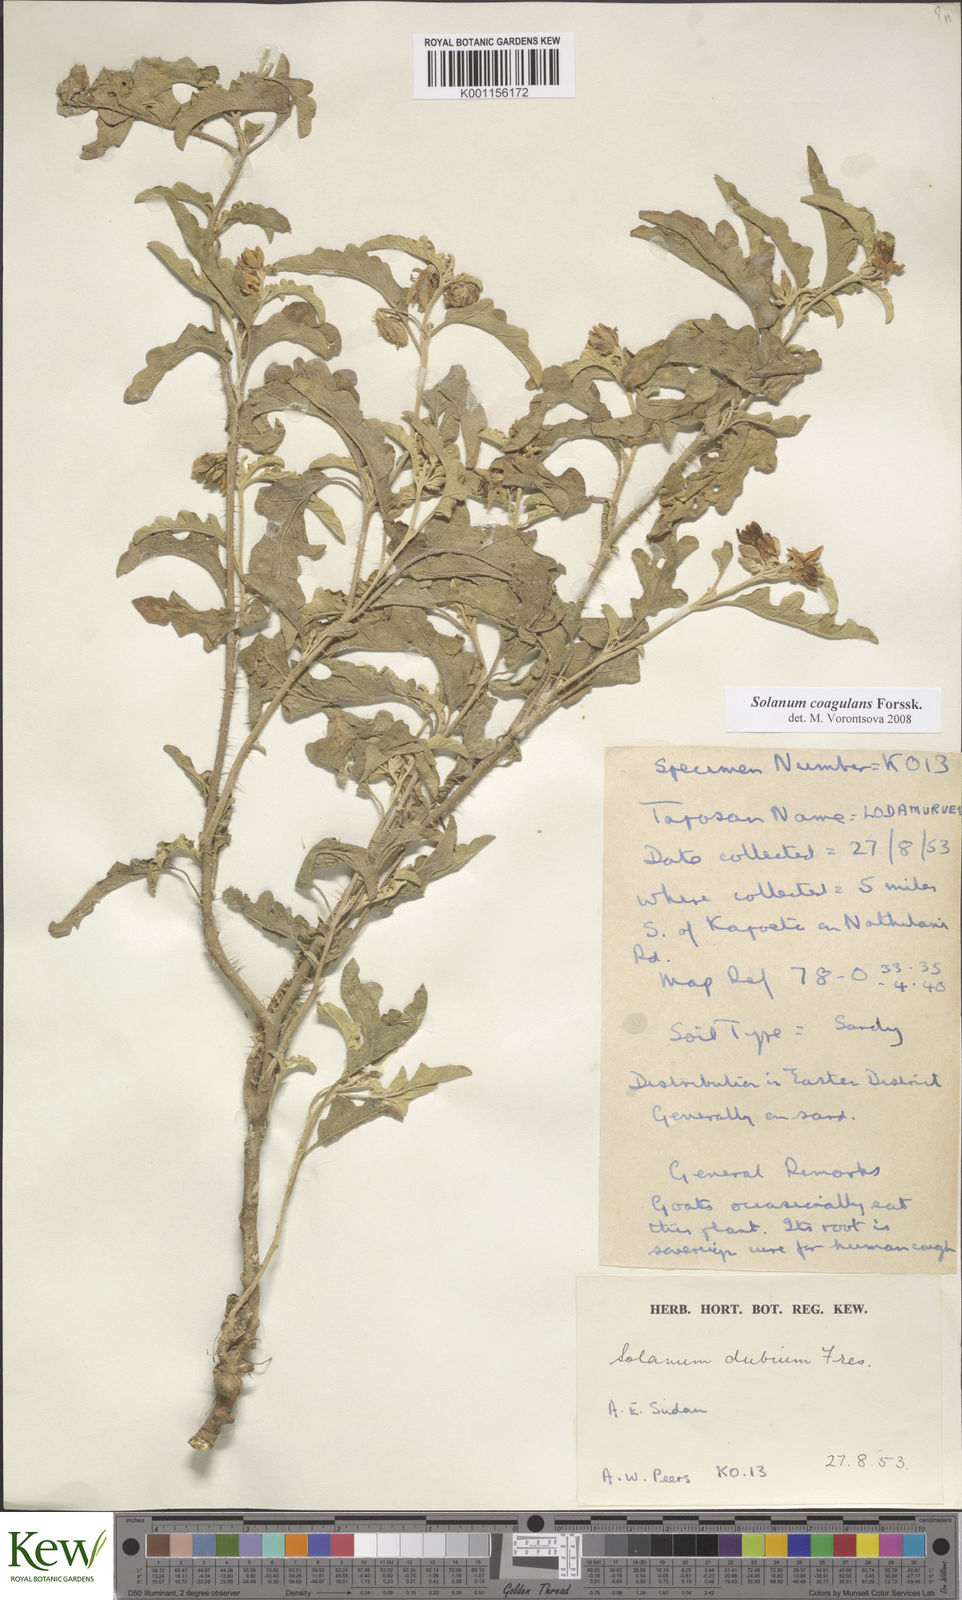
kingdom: Plantae
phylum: Tracheophyta
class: Magnoliopsida
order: Solanales
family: Solanaceae
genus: Solanum
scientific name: Solanum coagulans
